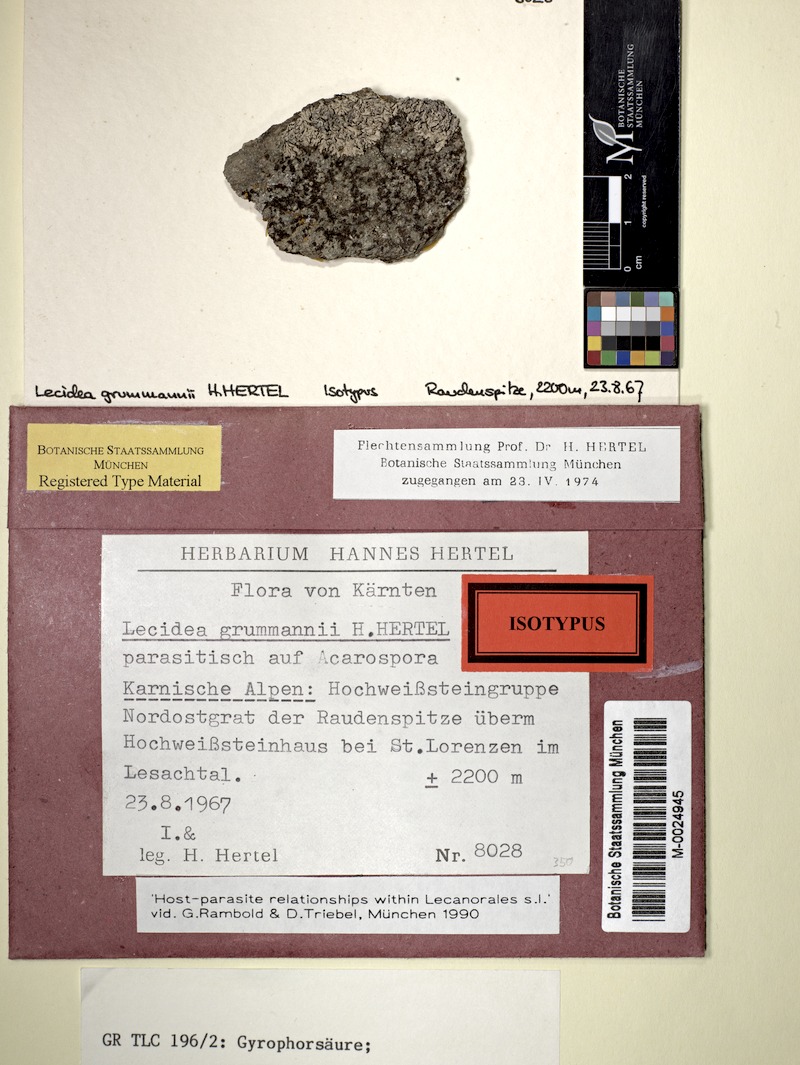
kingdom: Fungi
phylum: Ascomycota
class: Lecanoromycetes
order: Lecideales
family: Lecideaceae
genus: Lecidea
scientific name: Lecidea grummannii
